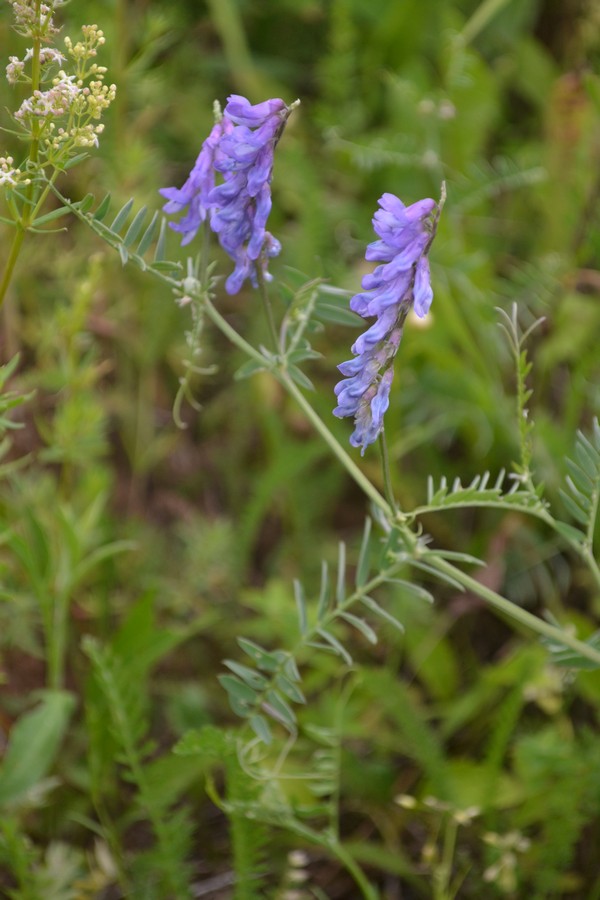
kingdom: Plantae
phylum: Tracheophyta
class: Magnoliopsida
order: Fabales
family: Fabaceae
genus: Vicia
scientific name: Vicia cracca
